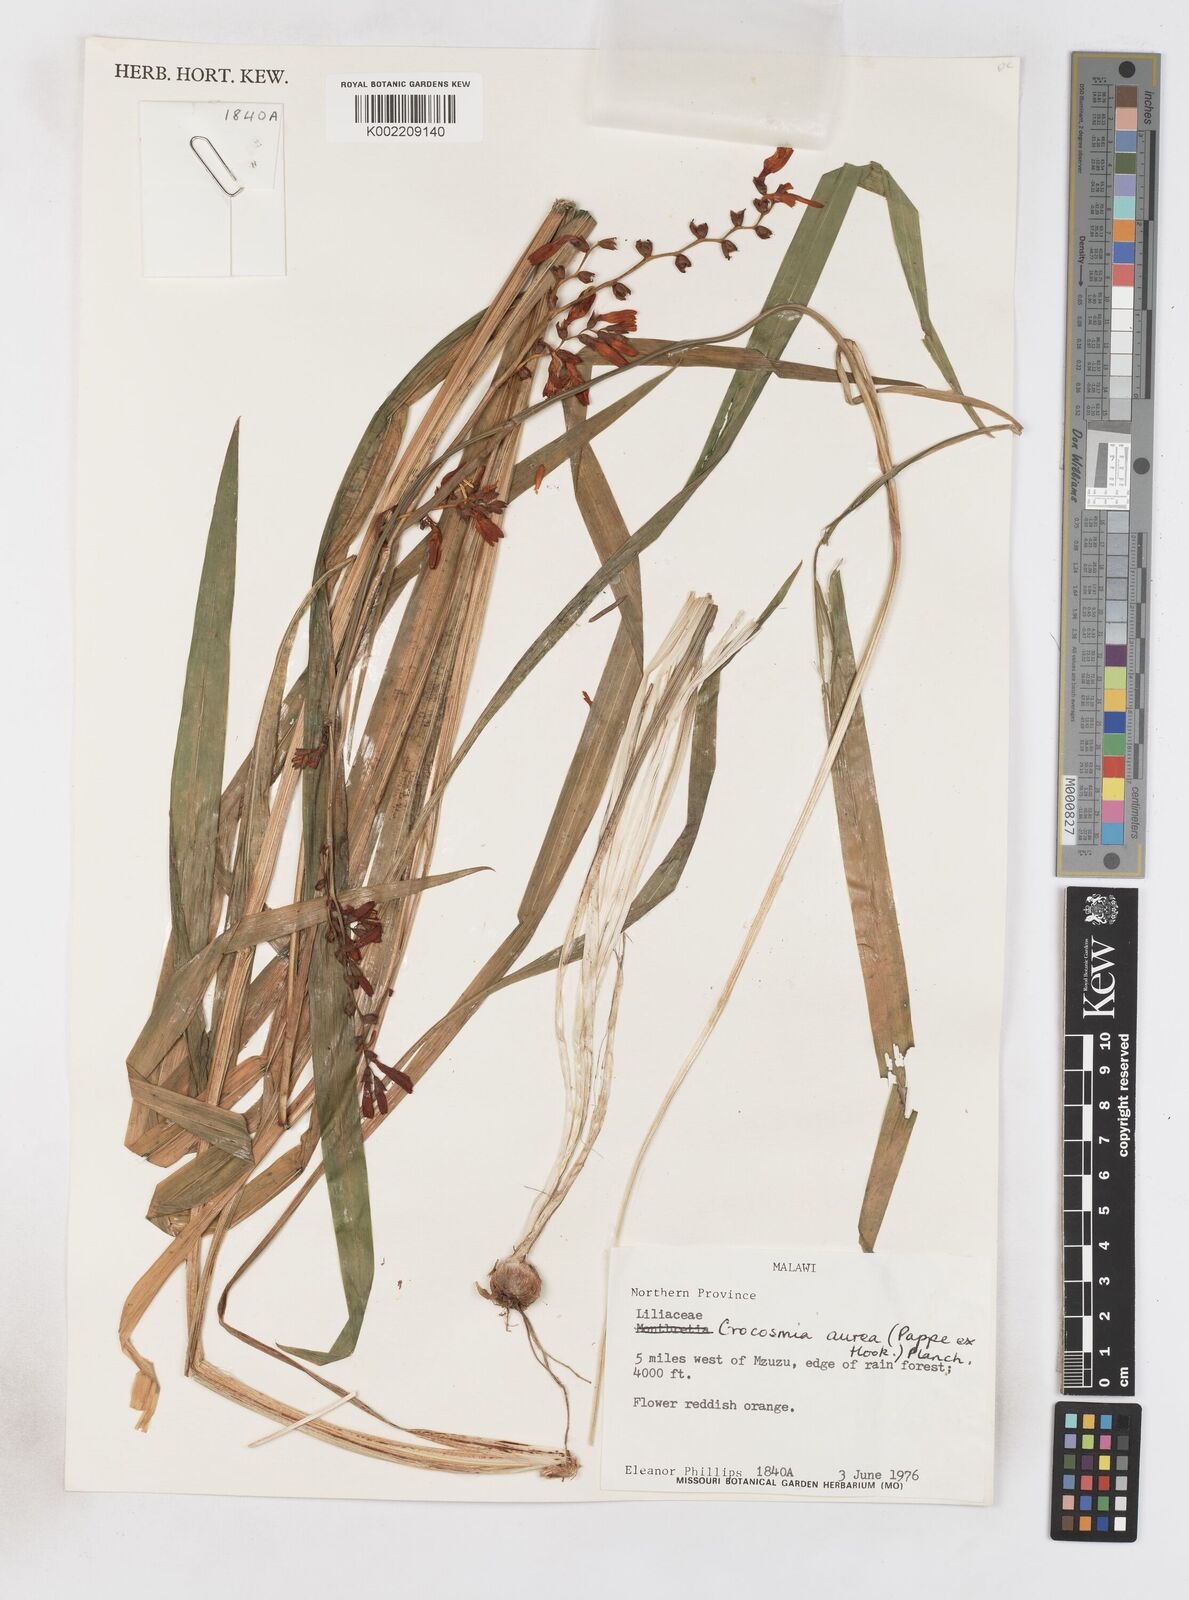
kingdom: Plantae
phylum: Tracheophyta
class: Liliopsida
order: Asparagales
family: Iridaceae
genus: Crocosmia
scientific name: Crocosmia aurea
